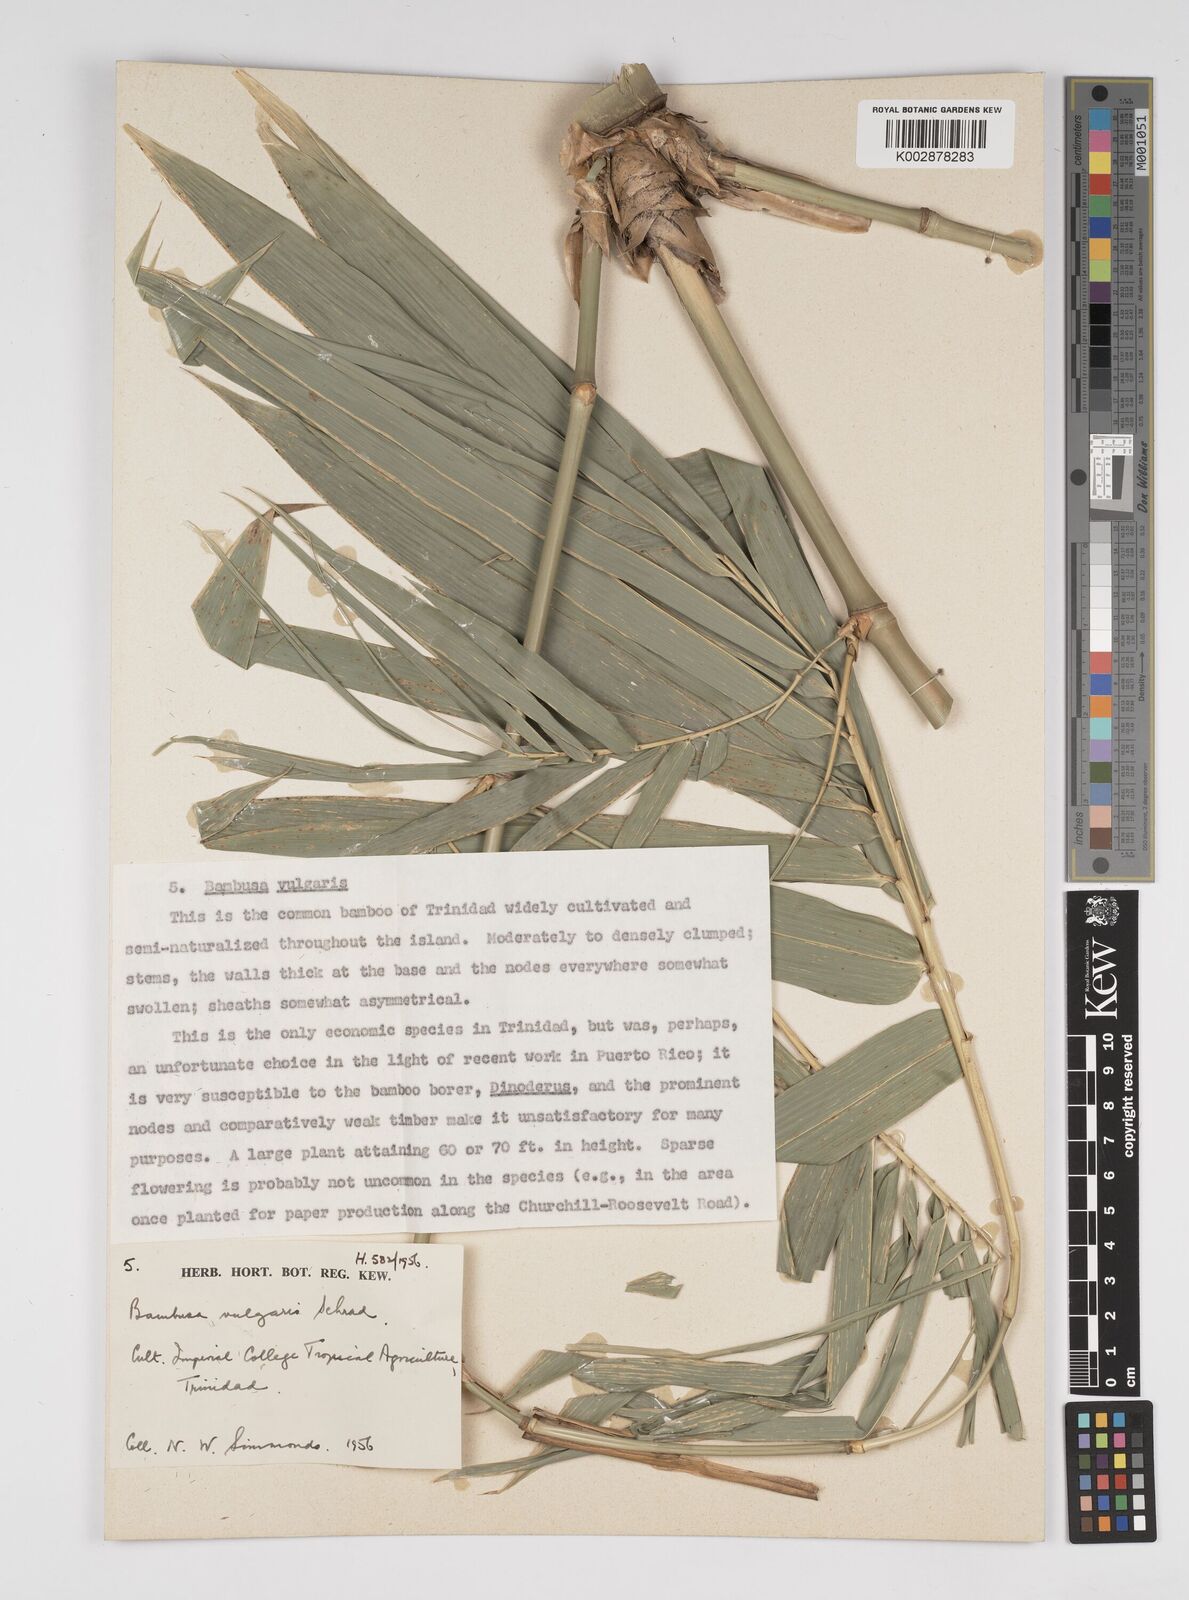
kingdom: Plantae
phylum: Tracheophyta
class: Liliopsida
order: Poales
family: Poaceae
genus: Bambusa
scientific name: Bambusa vulgaris
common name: Common bamboo
